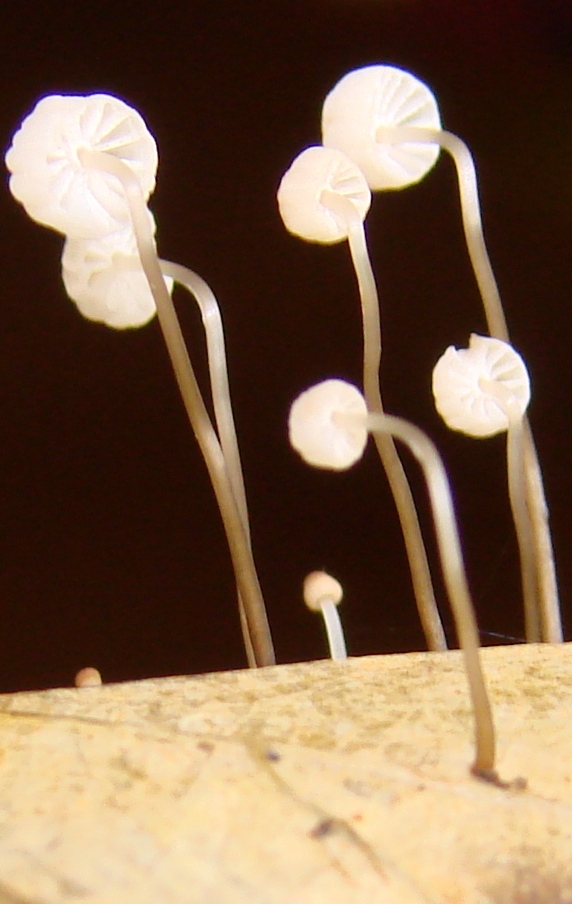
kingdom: Fungi
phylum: Basidiomycota
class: Agaricomycetes
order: Agaricales
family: Marasmiaceae
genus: Marasmius
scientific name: Marasmius bulliardii
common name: furet bruskhat
